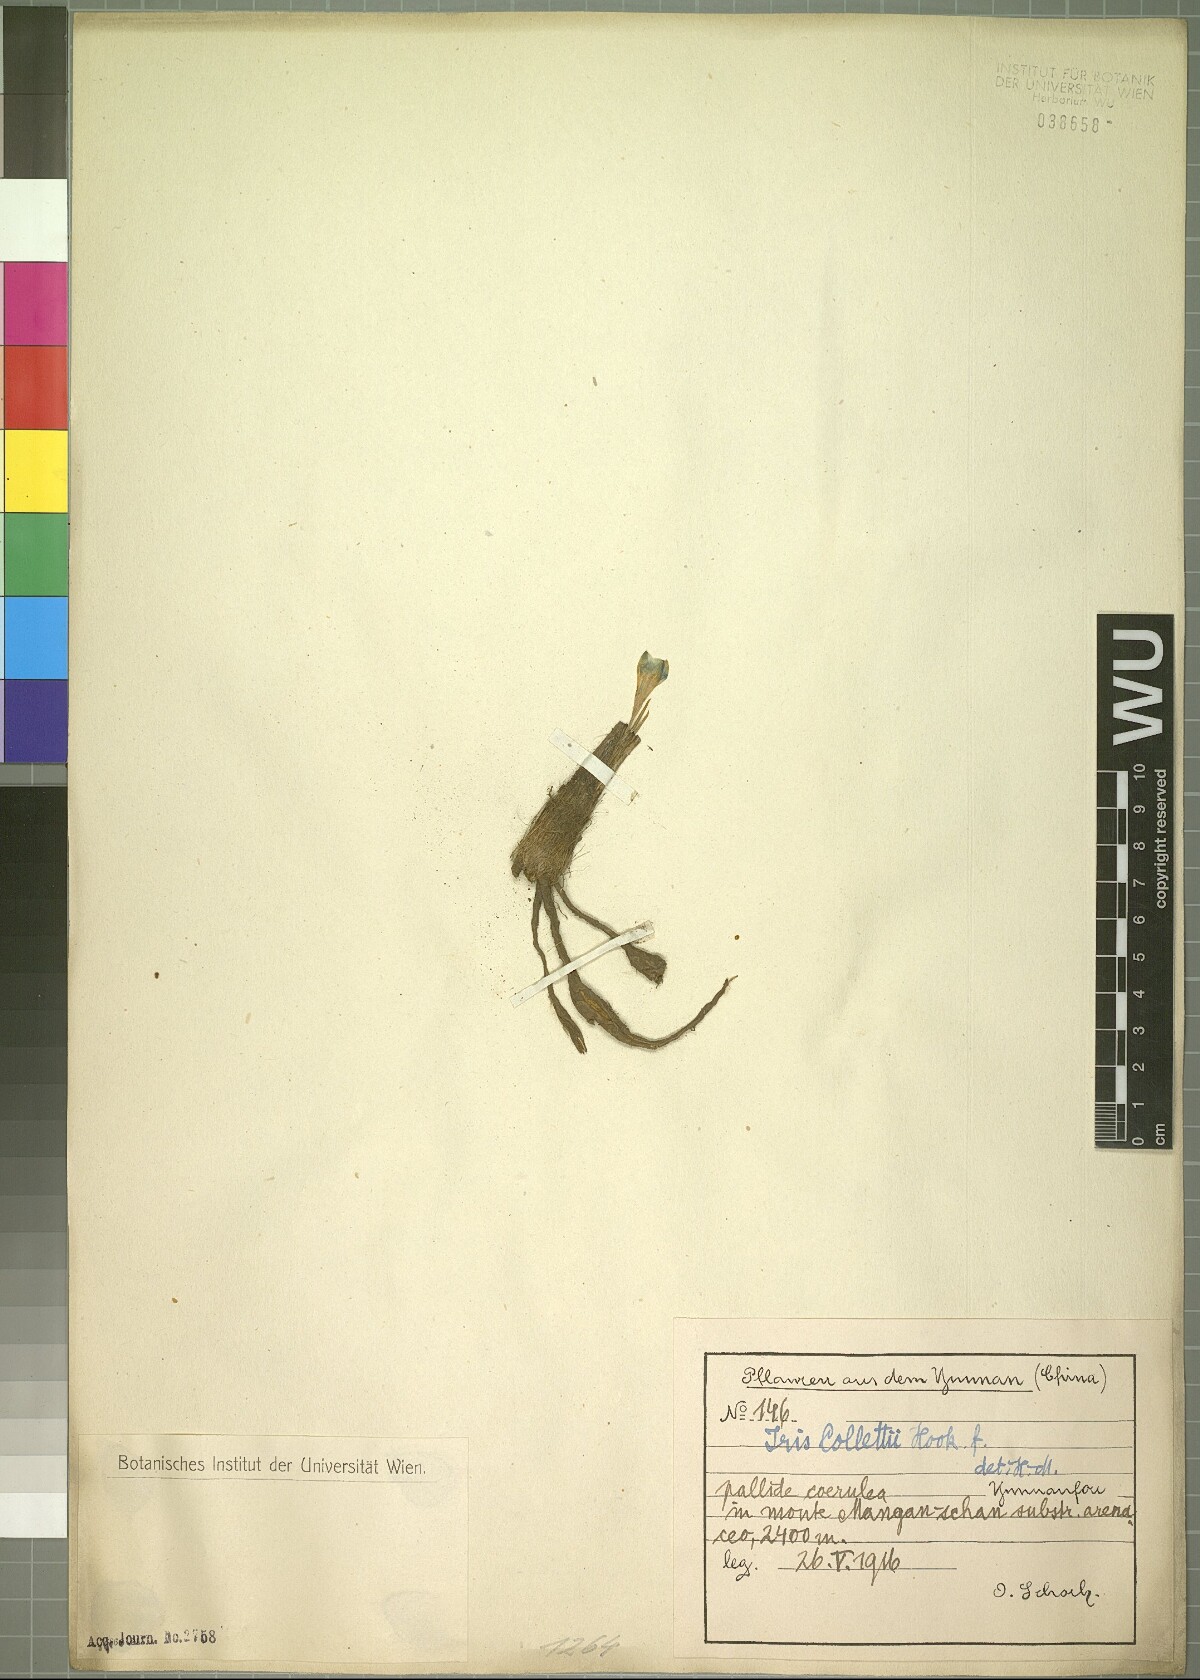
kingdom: Plantae
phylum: Tracheophyta
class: Liliopsida
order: Asparagales
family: Iridaceae
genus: Iris
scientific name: Iris collettii
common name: Plateau iris
